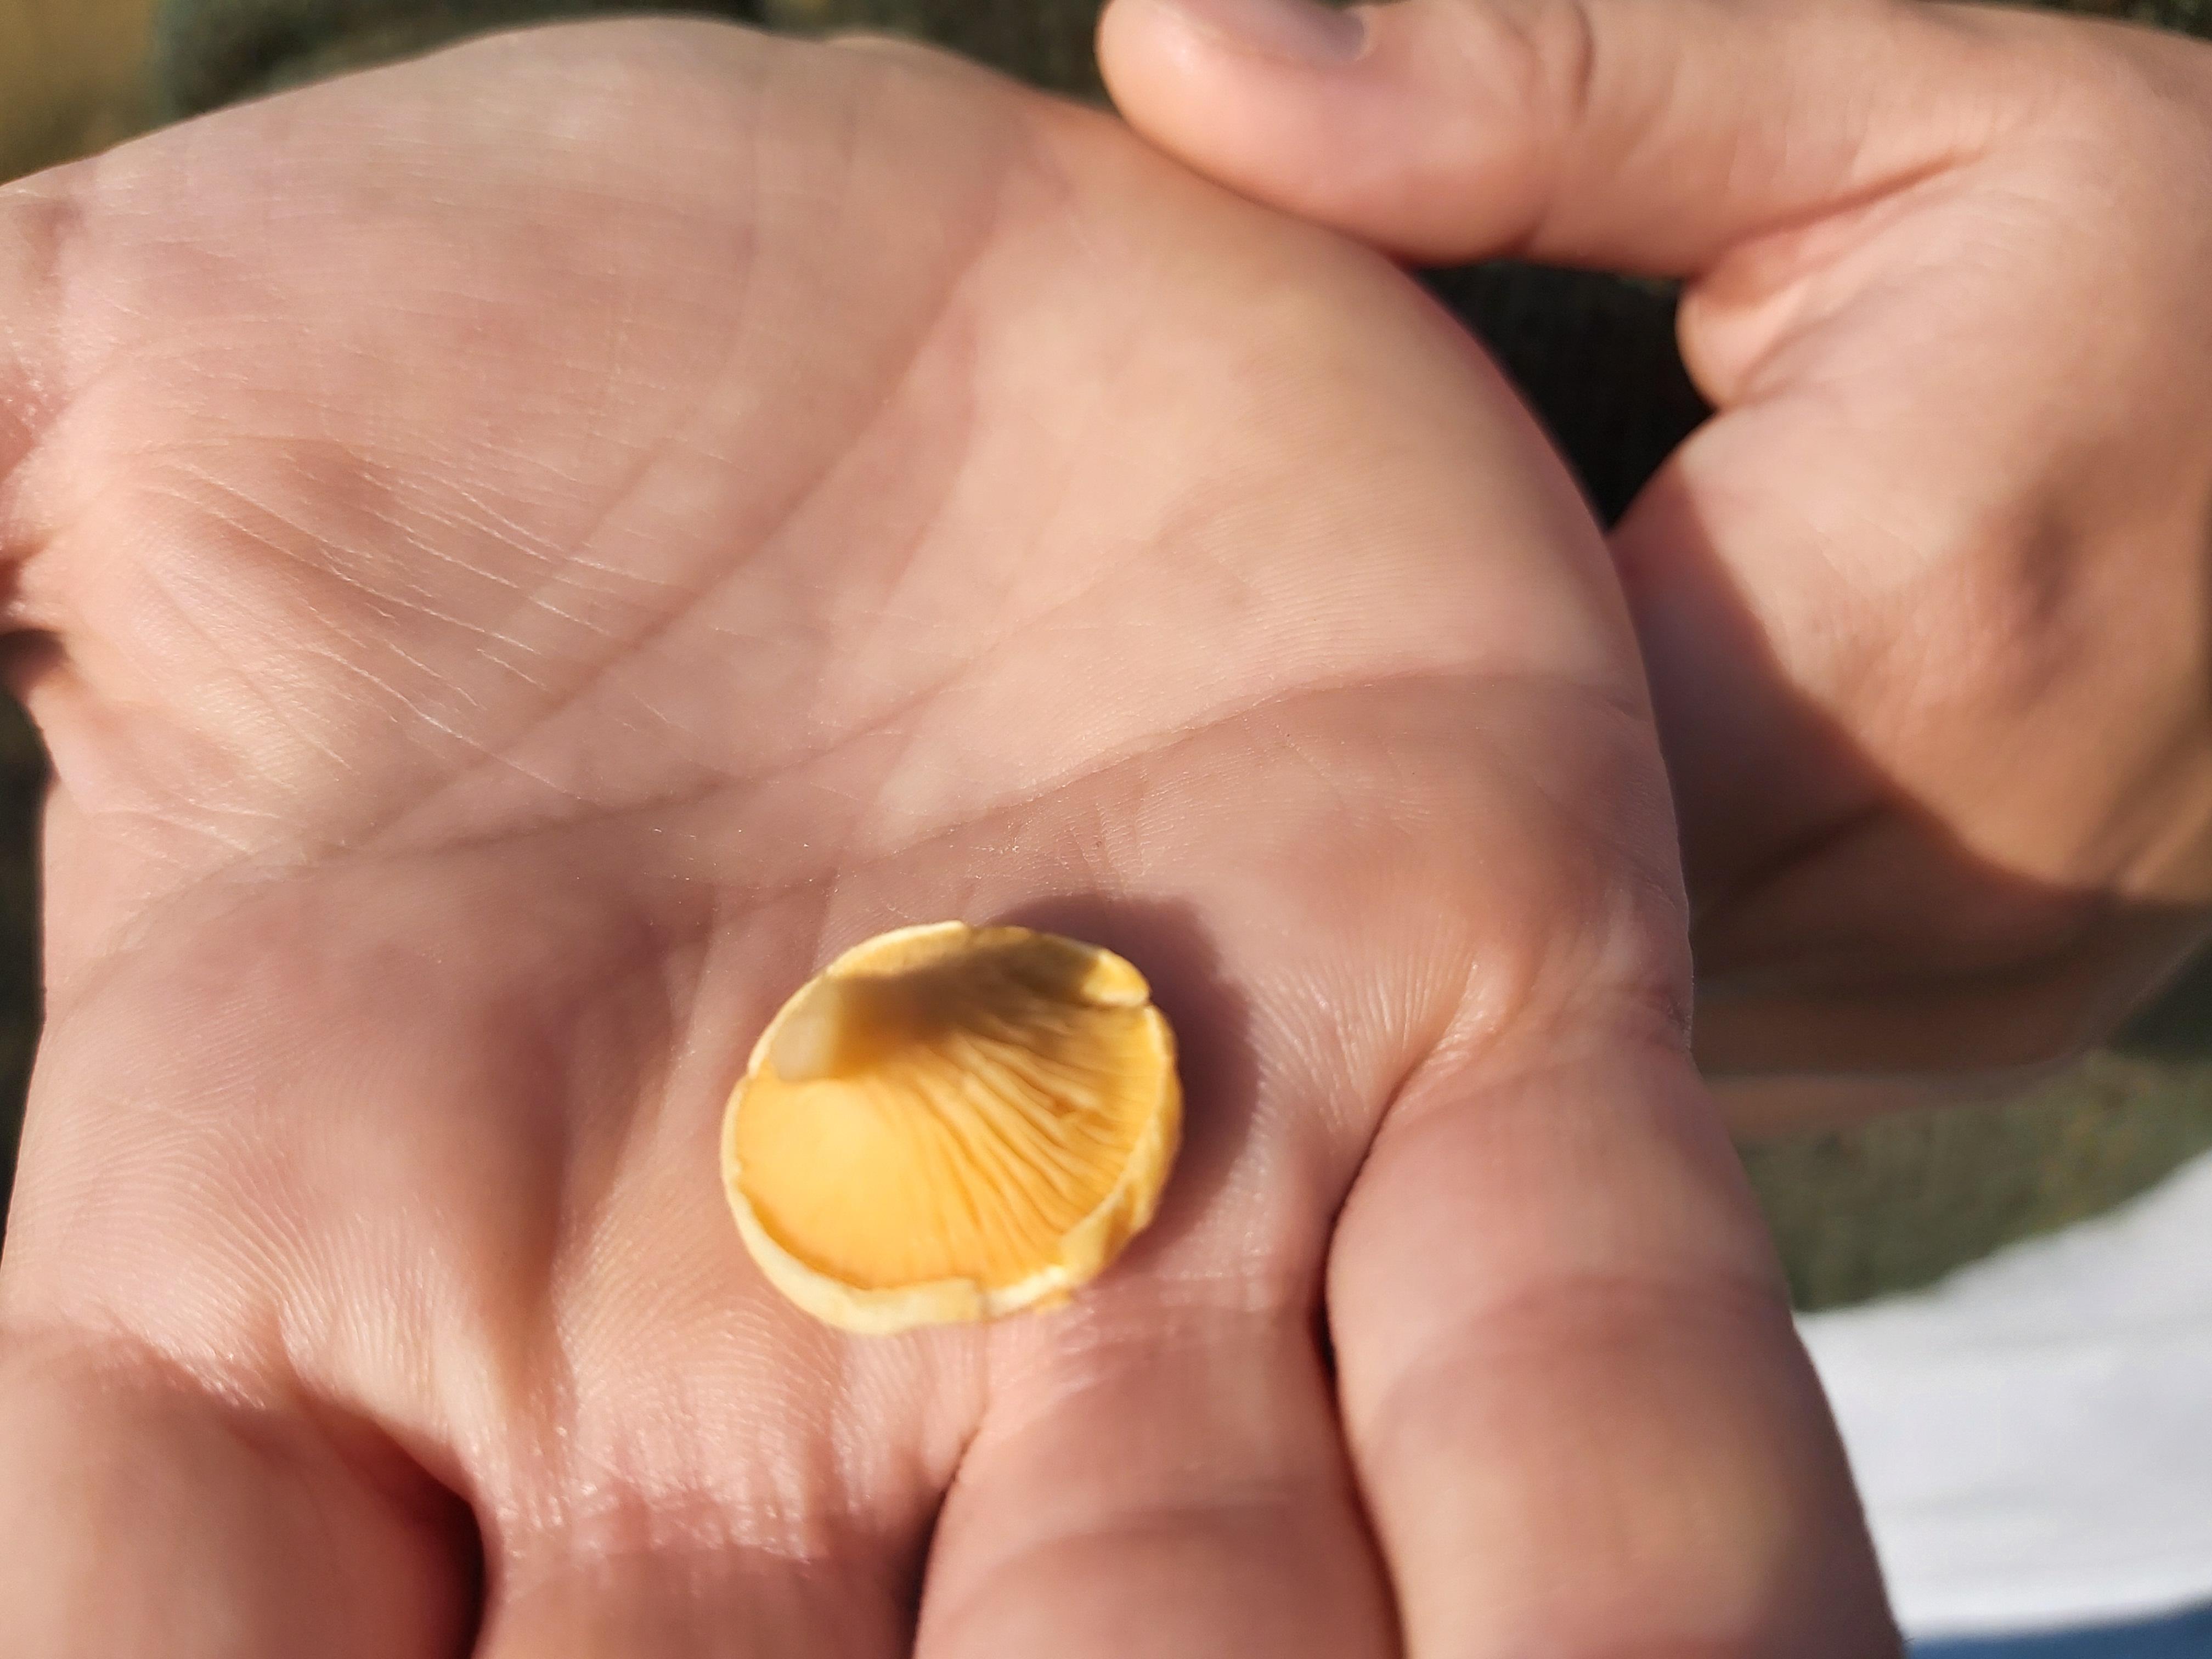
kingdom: Fungi
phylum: Basidiomycota
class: Agaricomycetes
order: Boletales
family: Hygrophoropsidaceae
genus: Hygrophoropsis
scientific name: Hygrophoropsis aurantiaca
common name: almindelig orangekantarel
